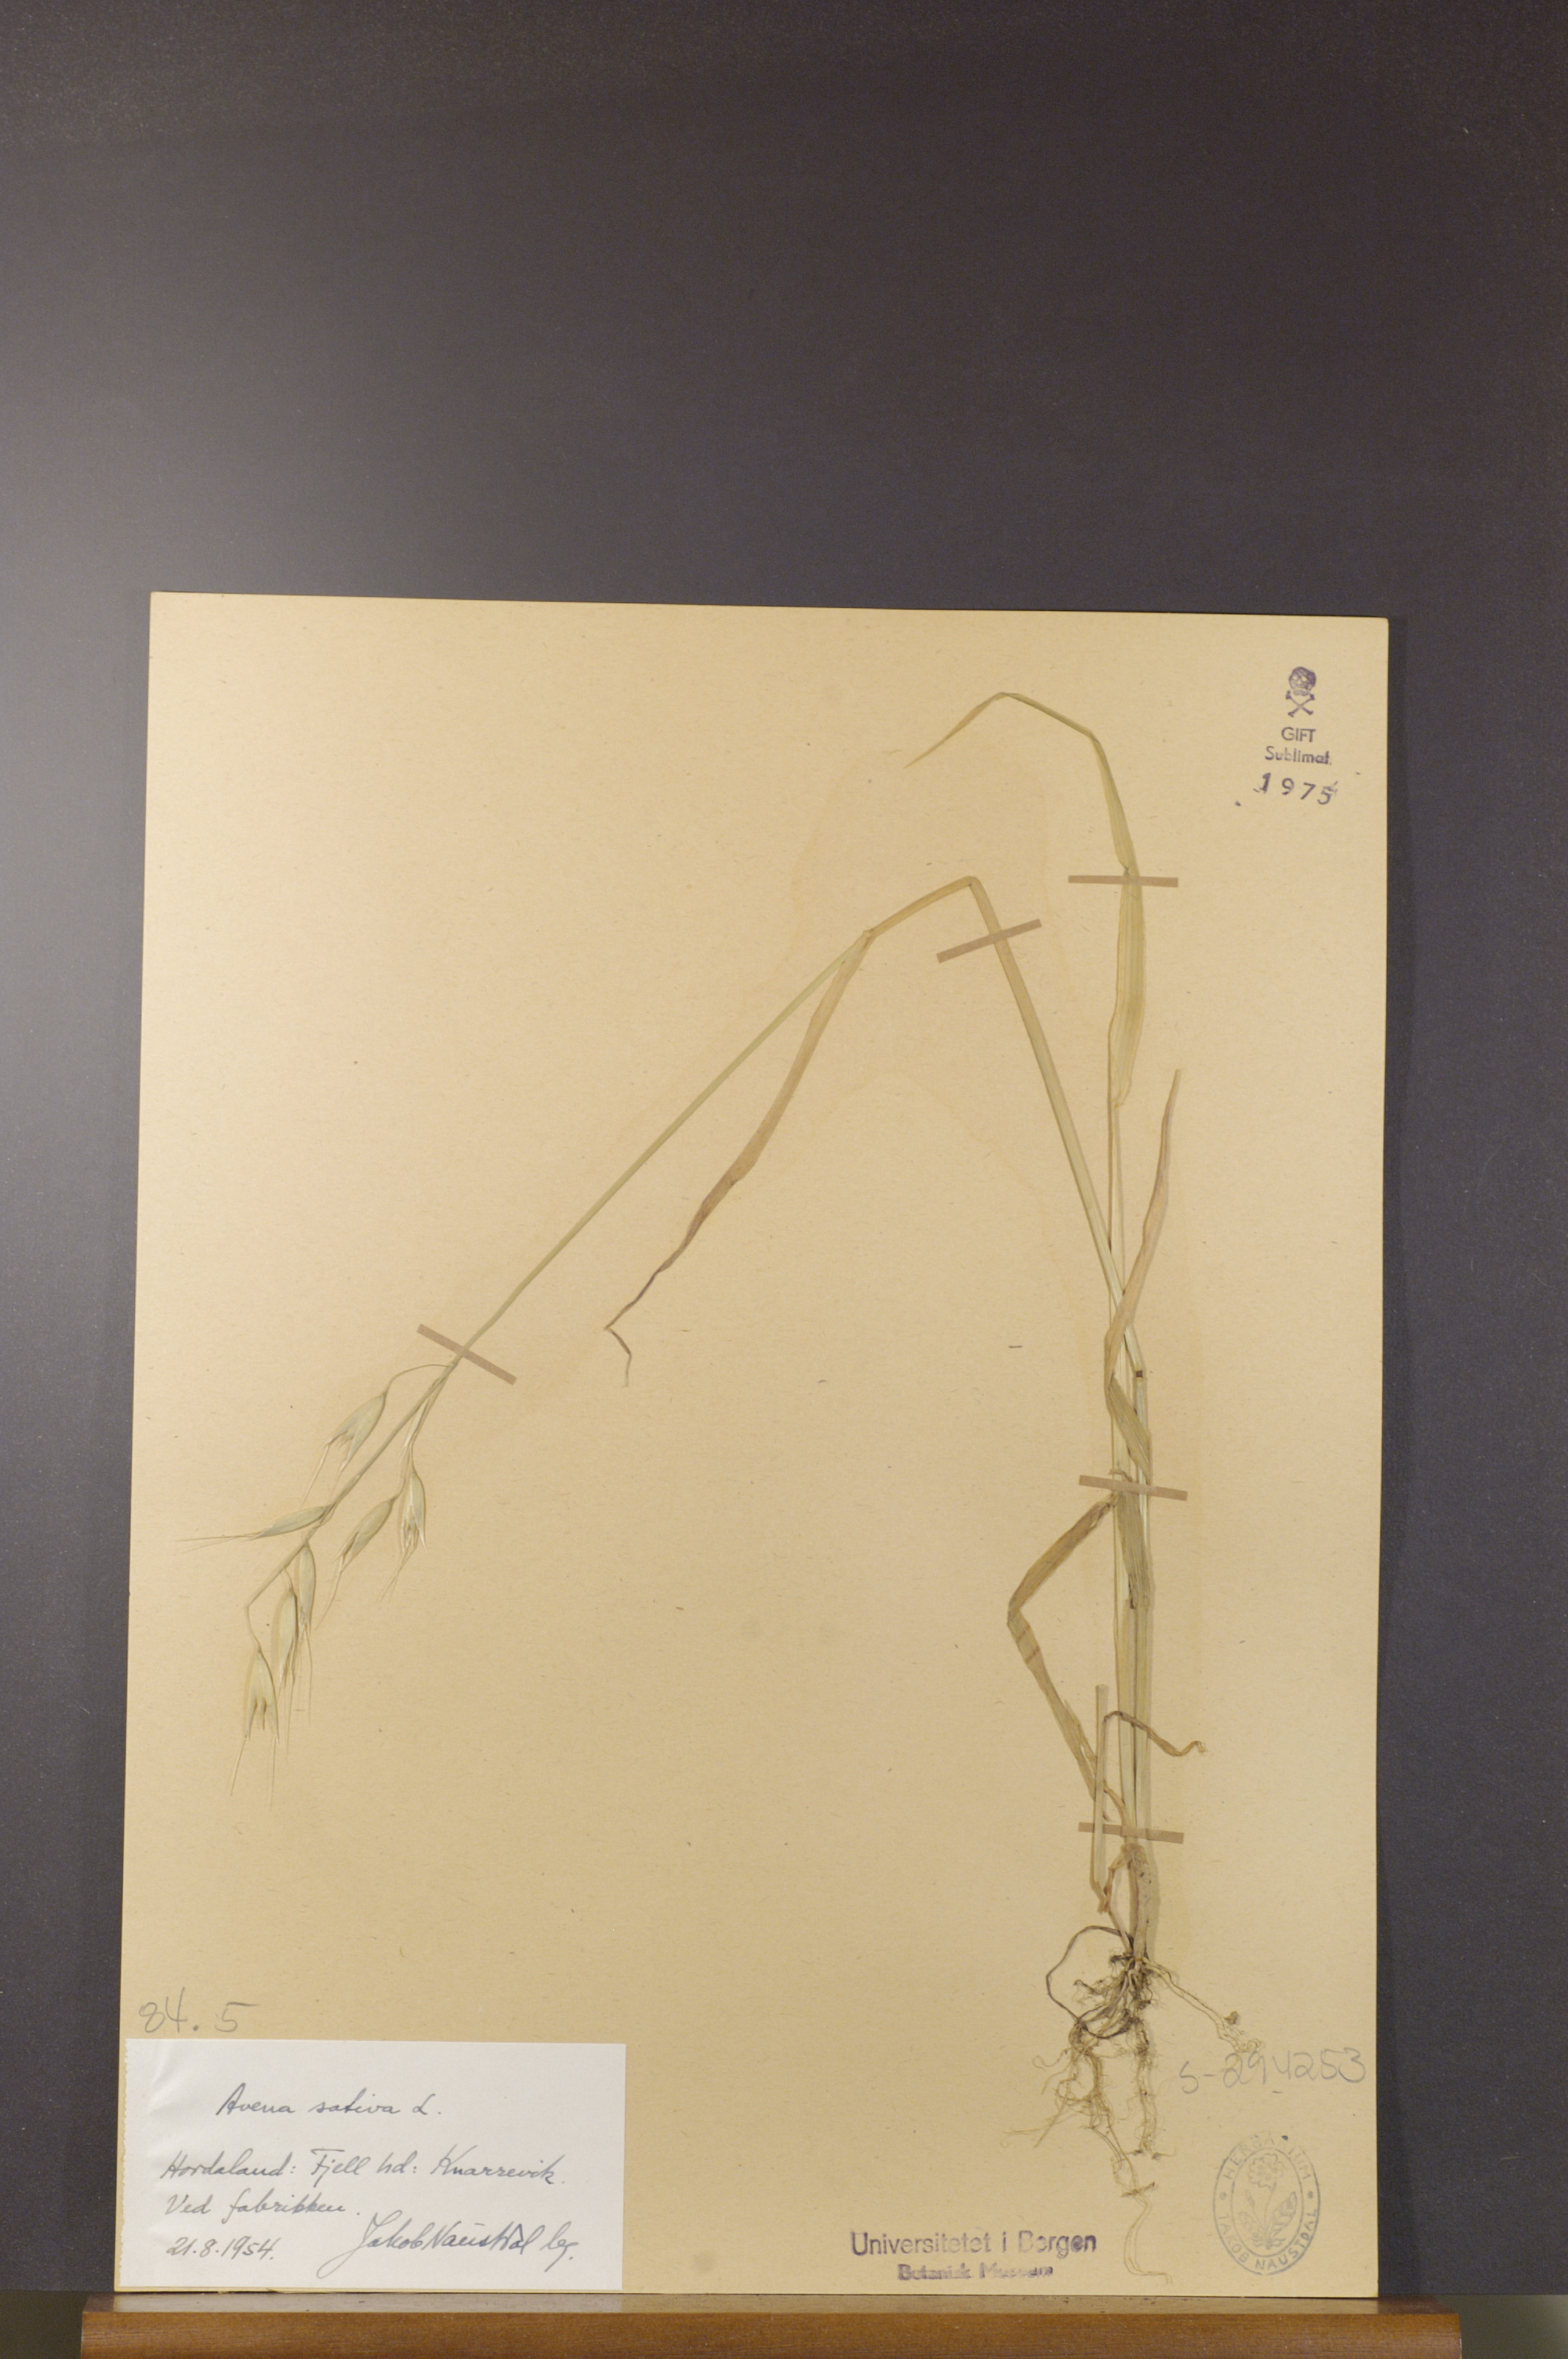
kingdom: Plantae
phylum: Tracheophyta
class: Liliopsida
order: Poales
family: Poaceae
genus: Avena
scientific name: Avena sativa
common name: Oat
